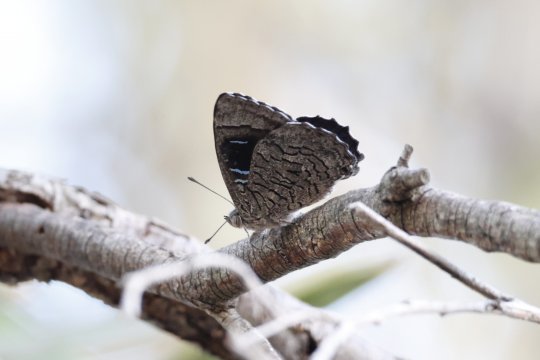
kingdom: Animalia
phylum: Arthropoda
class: Insecta
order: Lepidoptera
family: Lycaenidae
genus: Ogyris
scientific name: Ogyris barnardi
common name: Bright Purple Azure
